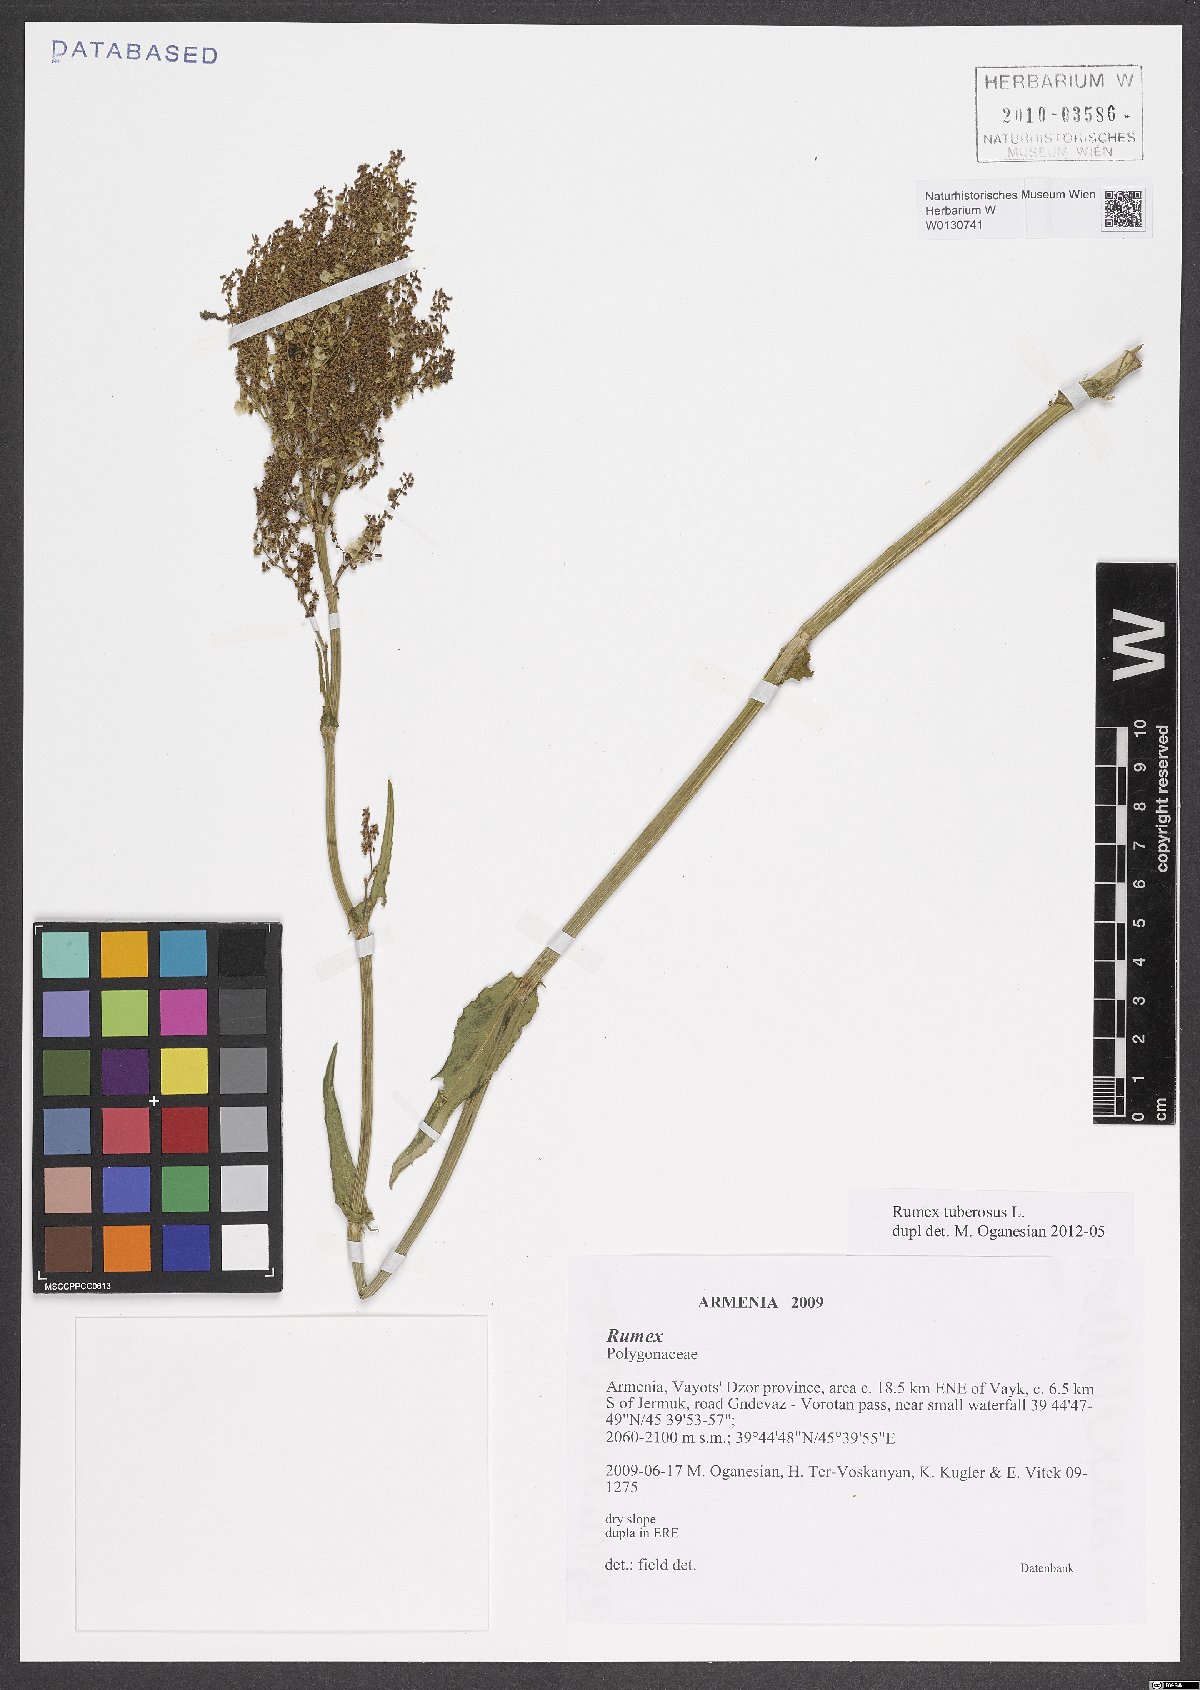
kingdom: Plantae
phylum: Tracheophyta
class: Magnoliopsida
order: Caryophyllales
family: Polygonaceae
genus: Rumex
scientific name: Rumex tuberosus
